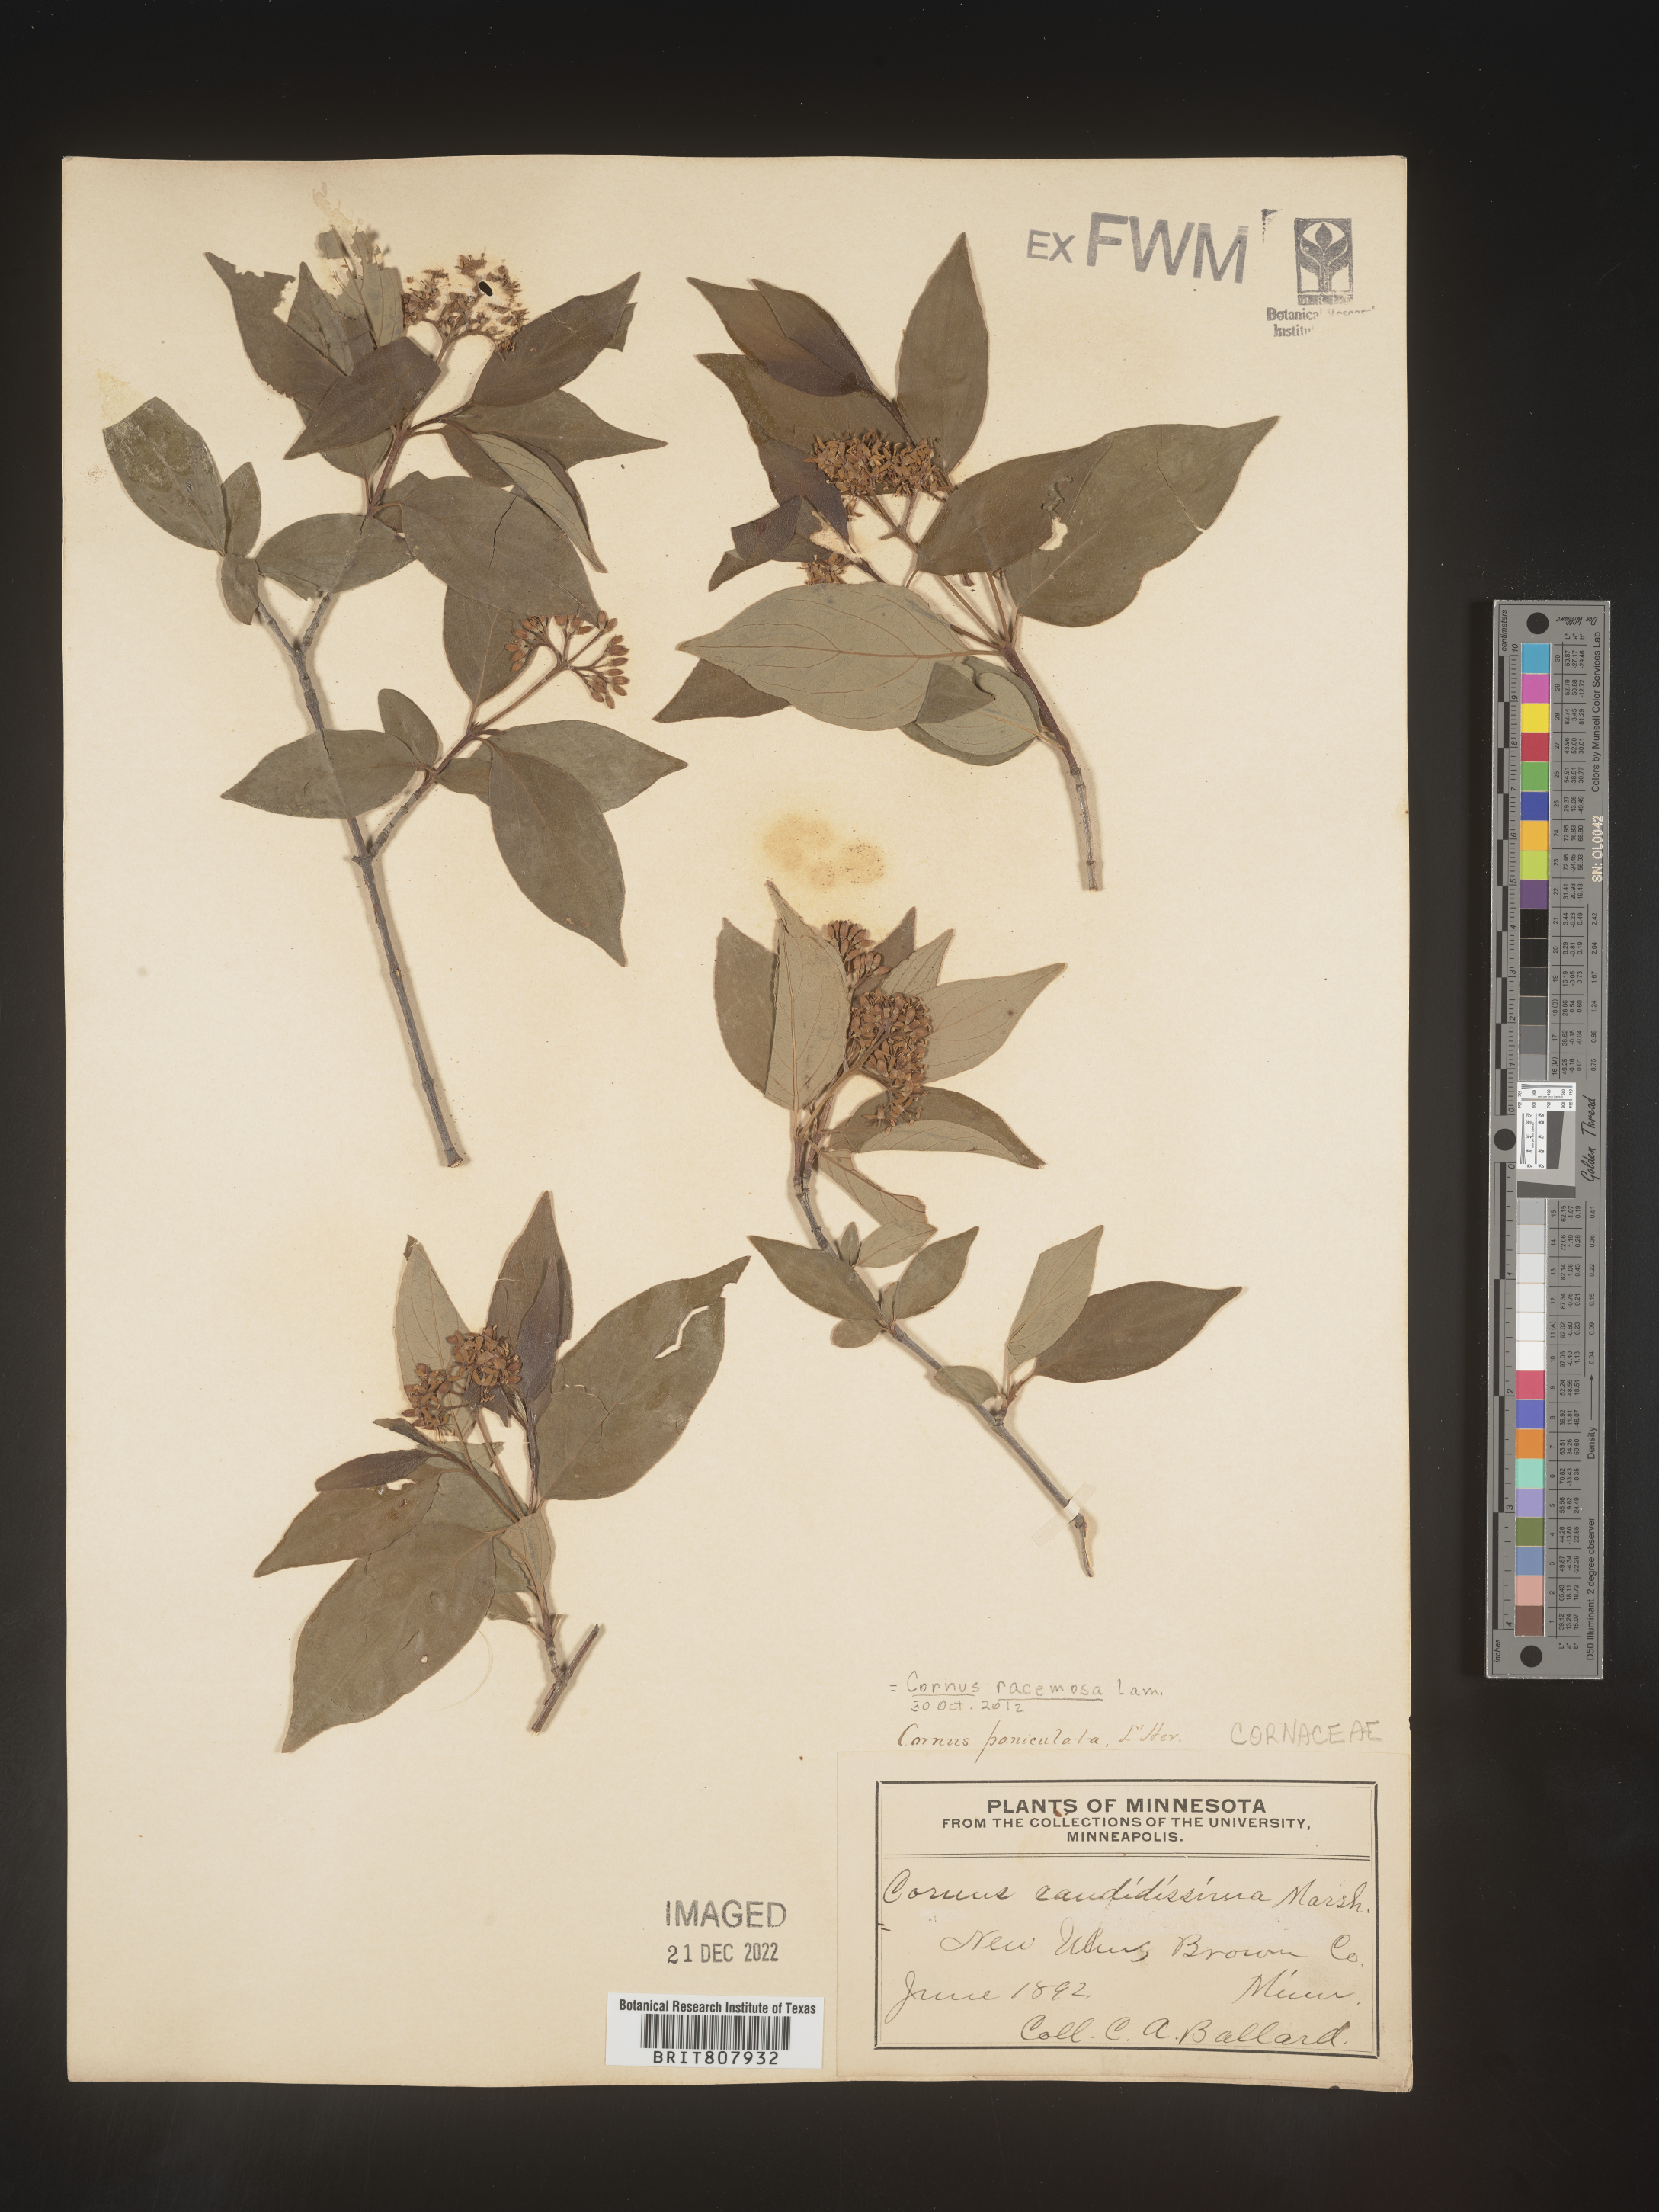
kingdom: Plantae
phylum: Tracheophyta
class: Magnoliopsida
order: Cornales
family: Cornaceae
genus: Cornus
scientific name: Cornus racemosa
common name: Panicled dogwood
